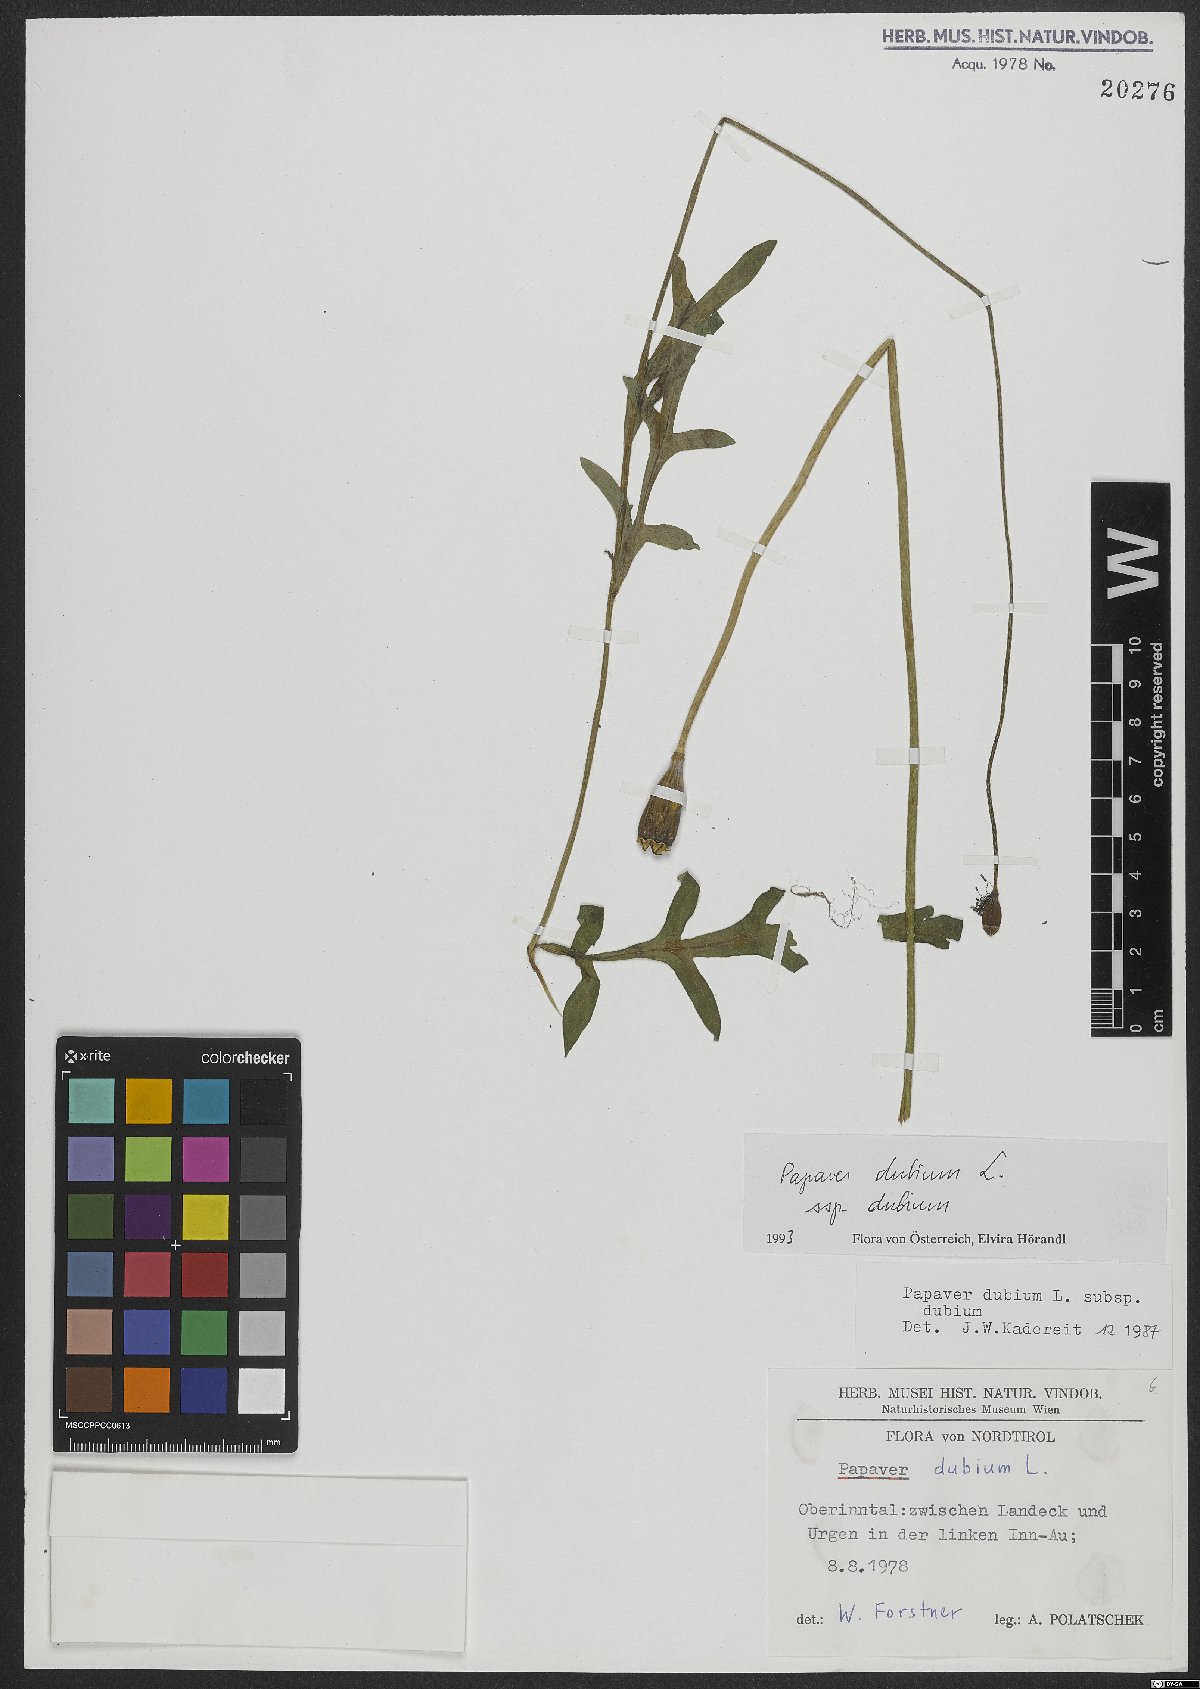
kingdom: Plantae
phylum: Tracheophyta
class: Magnoliopsida
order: Ranunculales
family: Papaveraceae
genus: Papaver
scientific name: Papaver dubium
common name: Long-headed poppy
